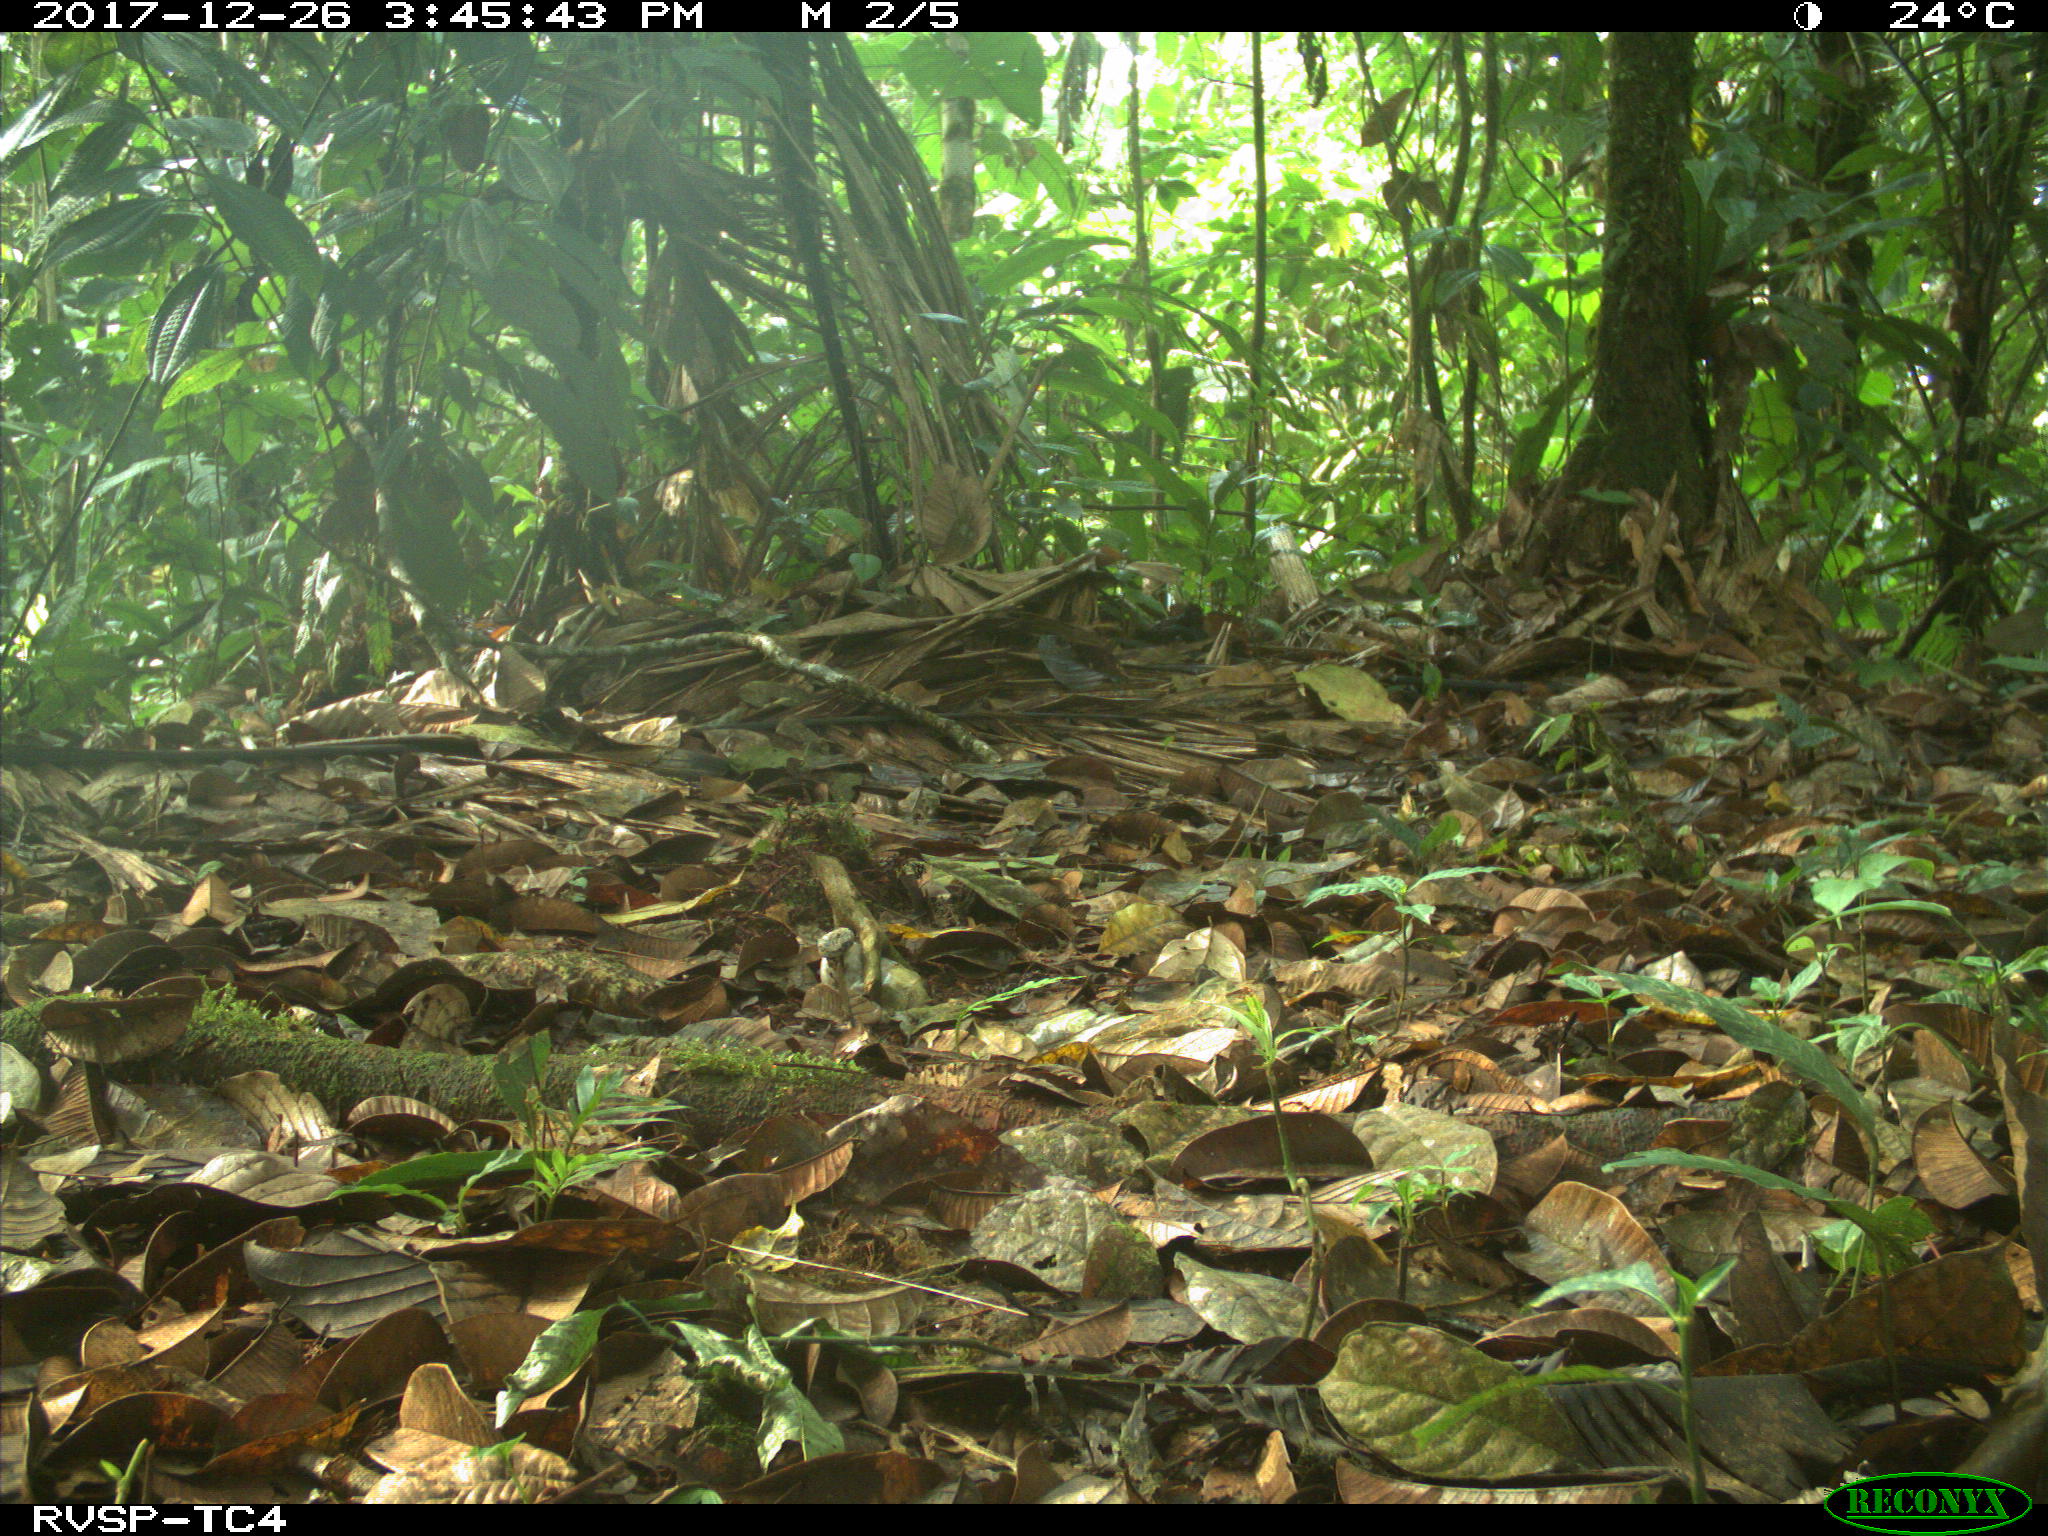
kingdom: Animalia
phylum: Chordata
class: Mammalia
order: Carnivora
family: Canidae
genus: Canis
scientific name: Canis lupus
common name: Gray wolf
